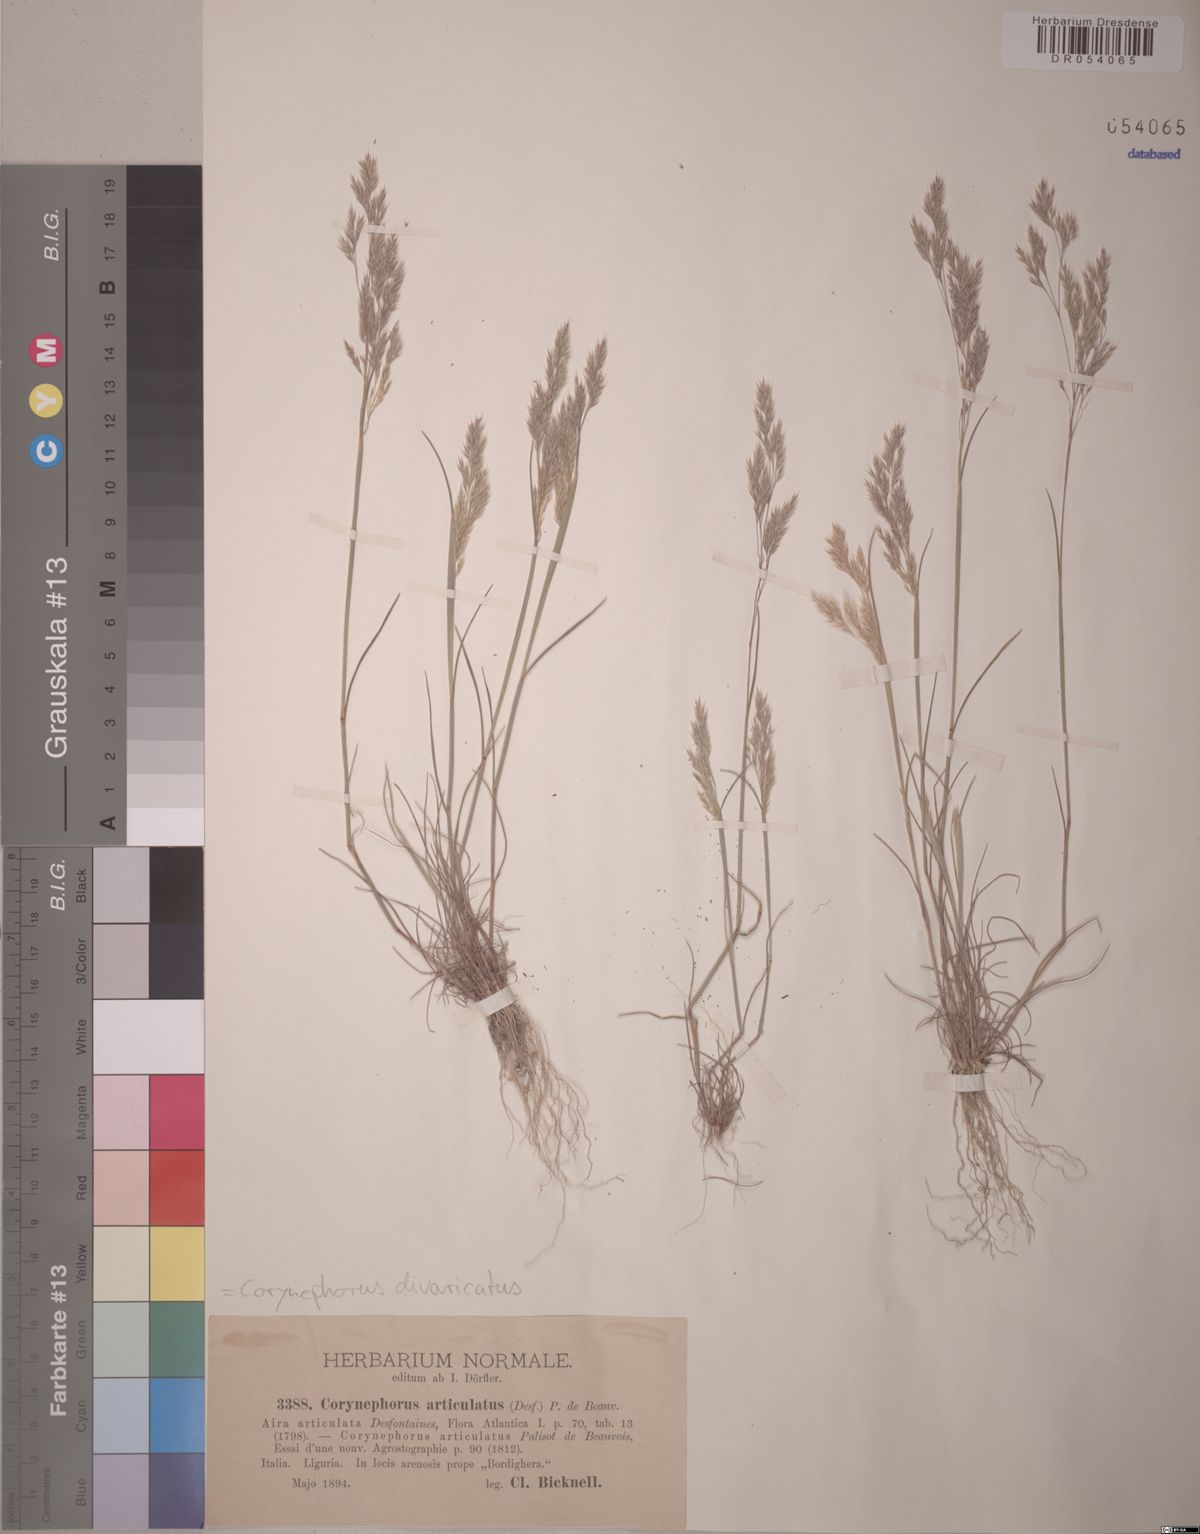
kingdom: Plantae
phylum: Tracheophyta
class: Liliopsida
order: Poales
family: Poaceae
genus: Corynephorus
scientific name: Corynephorus divaricatus
